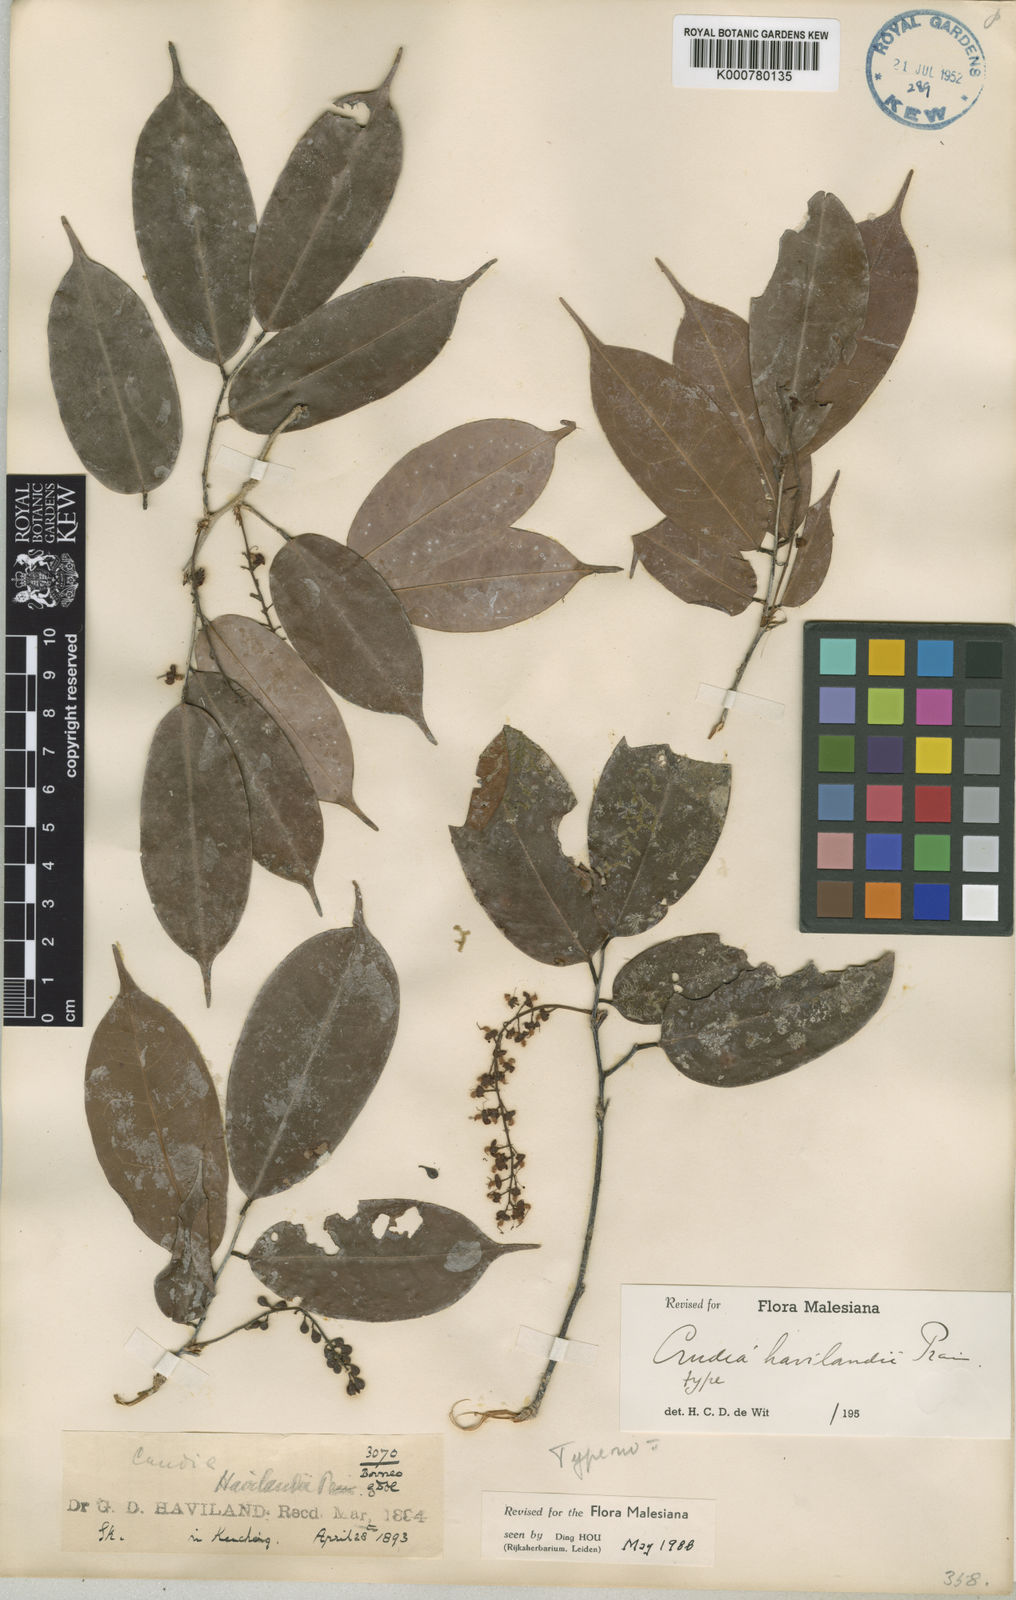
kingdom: Plantae
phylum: Tracheophyta
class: Magnoliopsida
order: Fabales
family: Fabaceae
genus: Crudia
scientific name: Crudia wrayi
